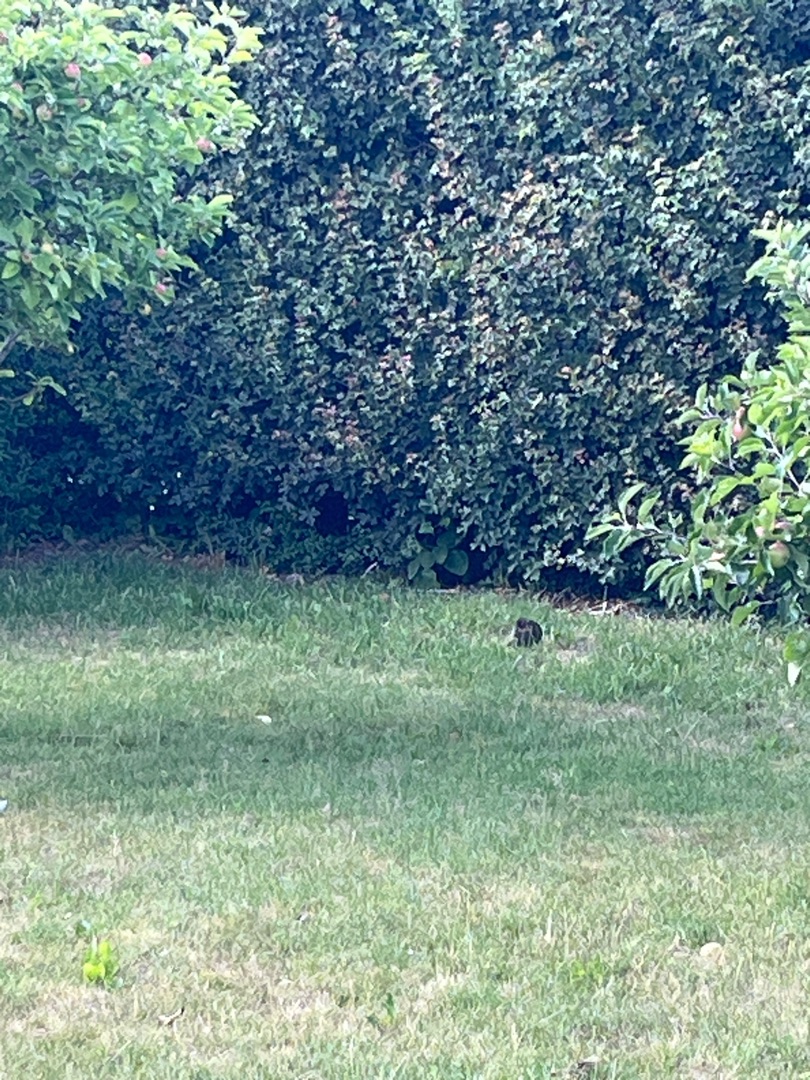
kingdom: Animalia
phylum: Chordata
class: Aves
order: Passeriformes
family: Turdidae
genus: Turdus
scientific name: Turdus merula
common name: Solsort
